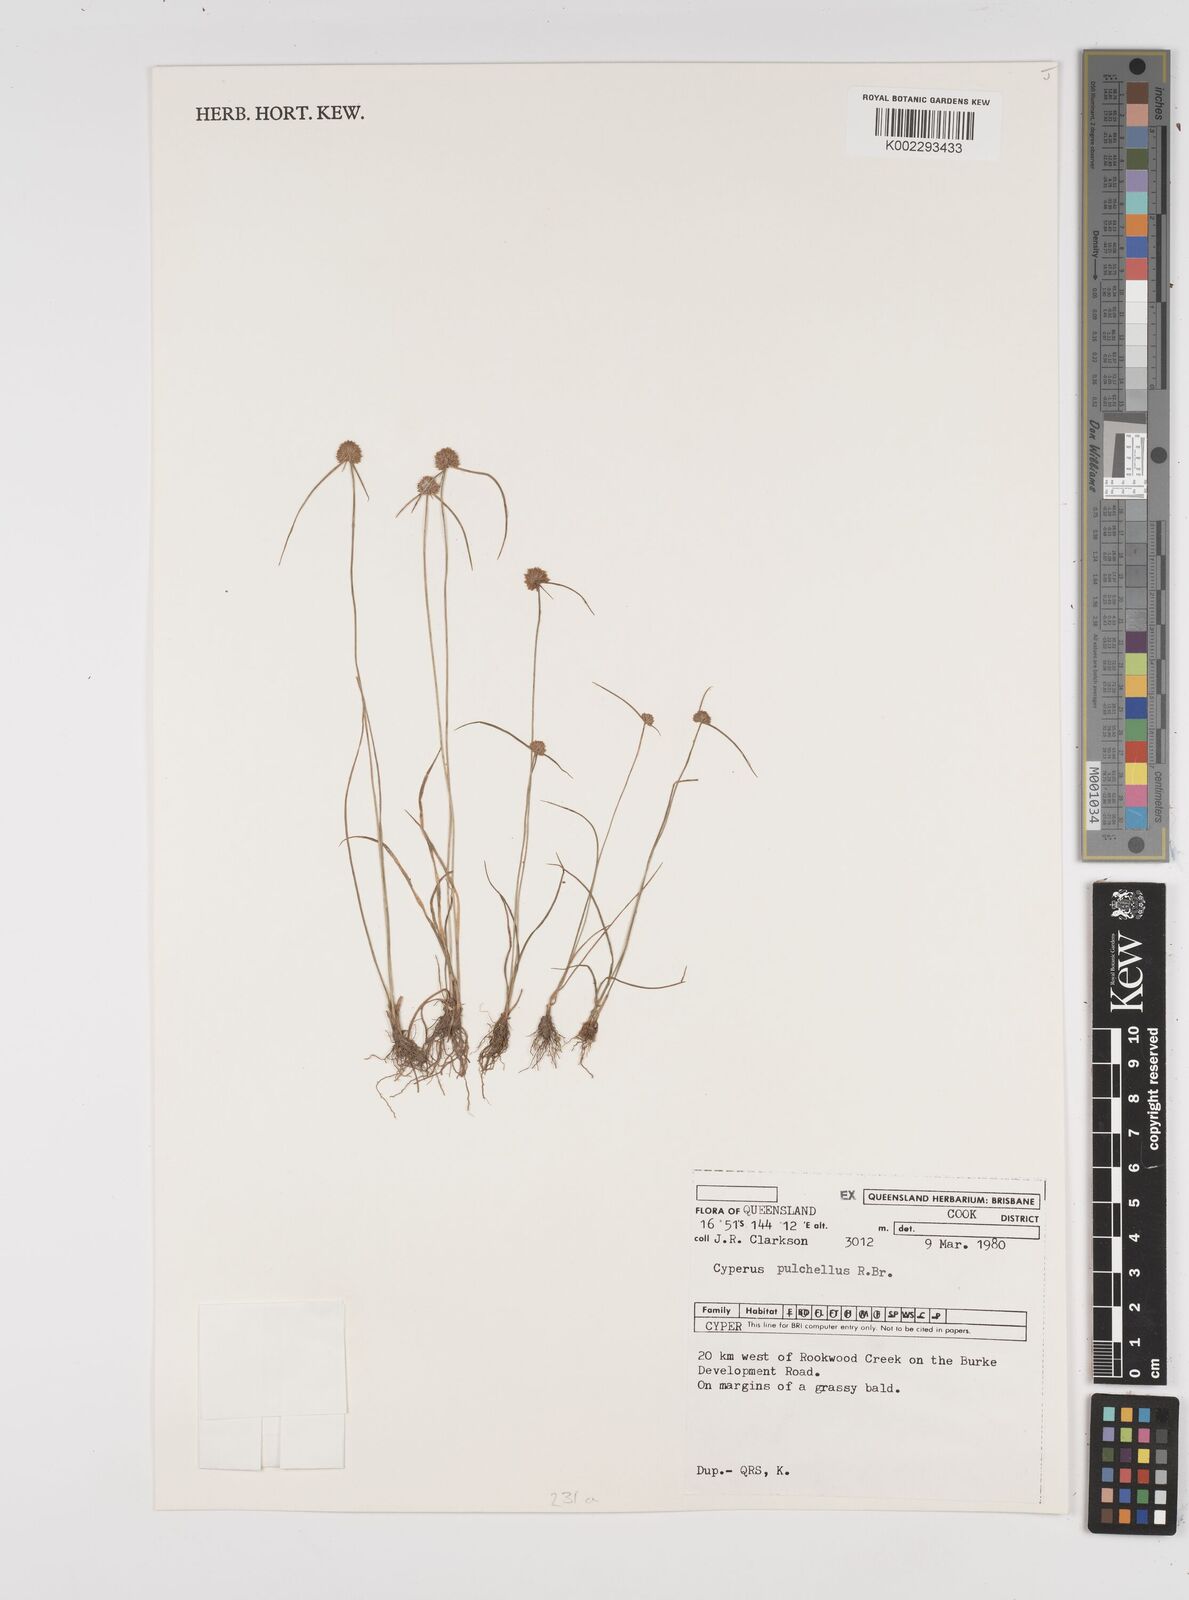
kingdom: Plantae
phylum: Tracheophyta
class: Liliopsida
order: Poales
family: Cyperaceae
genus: Cyperus
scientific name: Cyperus pulchellus
